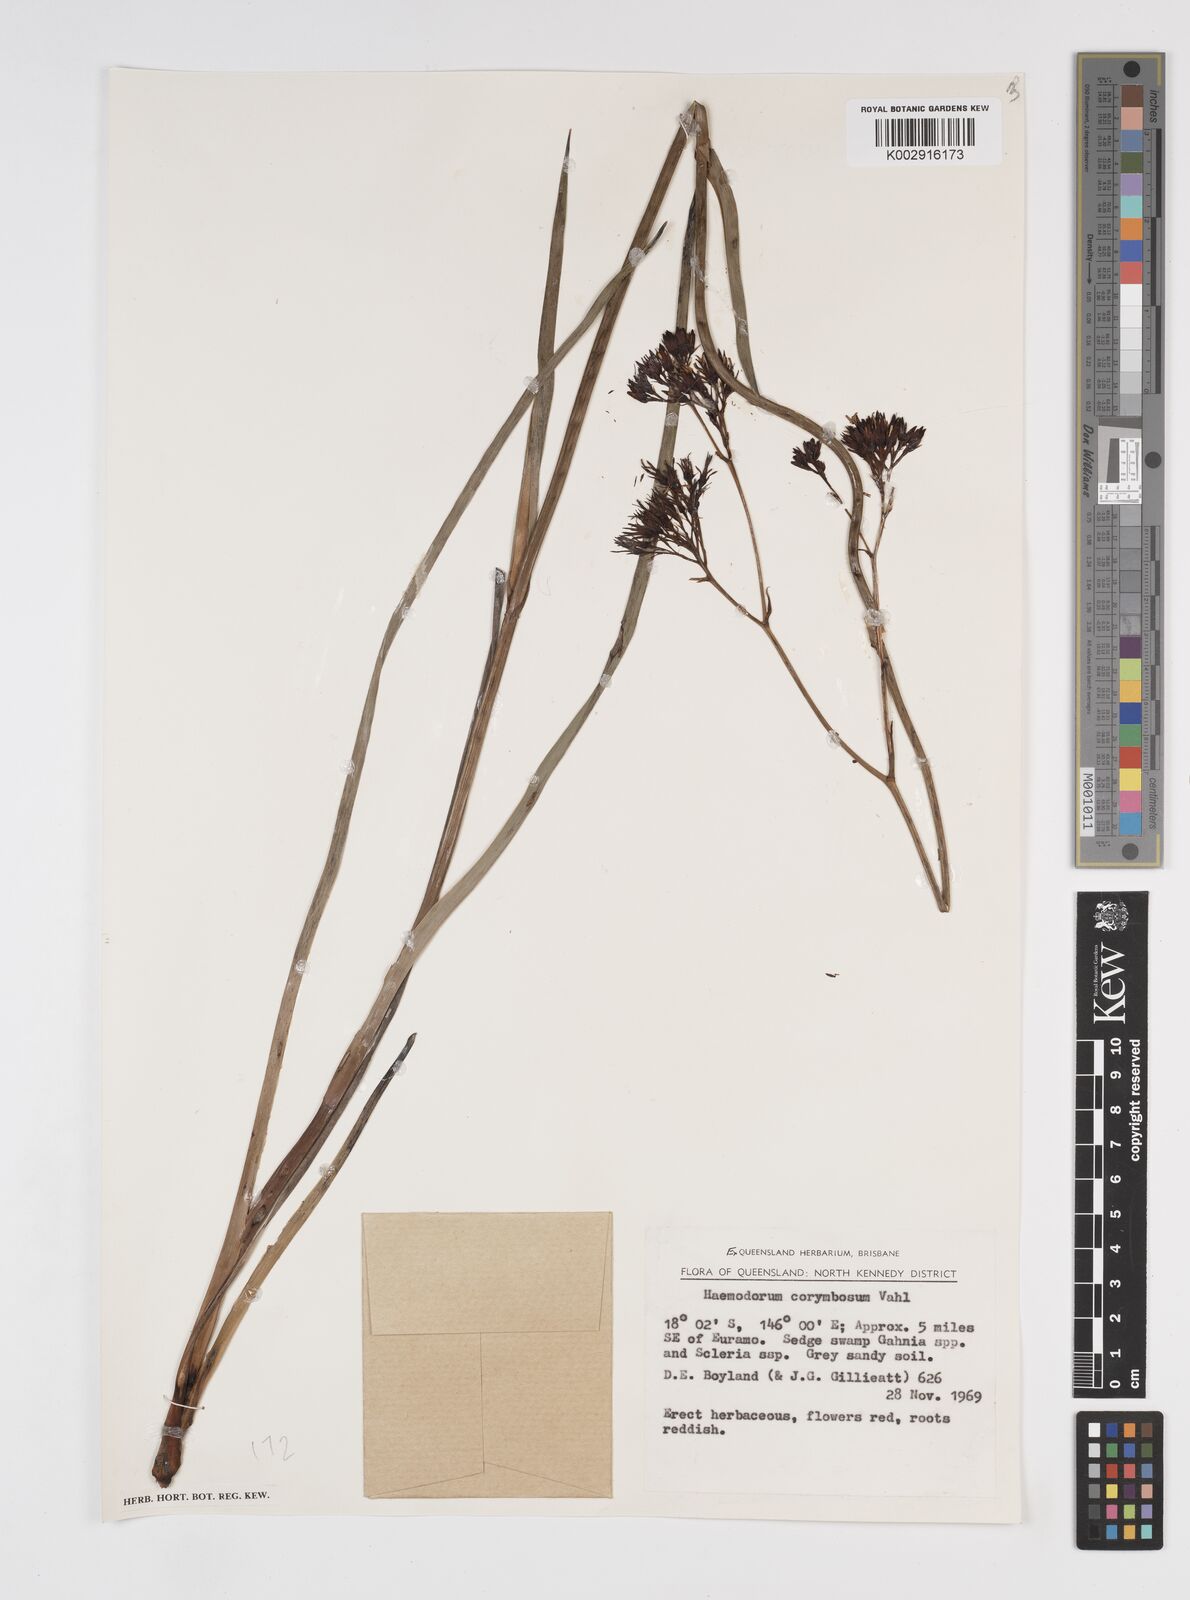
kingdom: Plantae
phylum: Tracheophyta
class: Liliopsida
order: Commelinales
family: Haemodoraceae
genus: Haemodorum
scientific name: Haemodorum corymbosum
